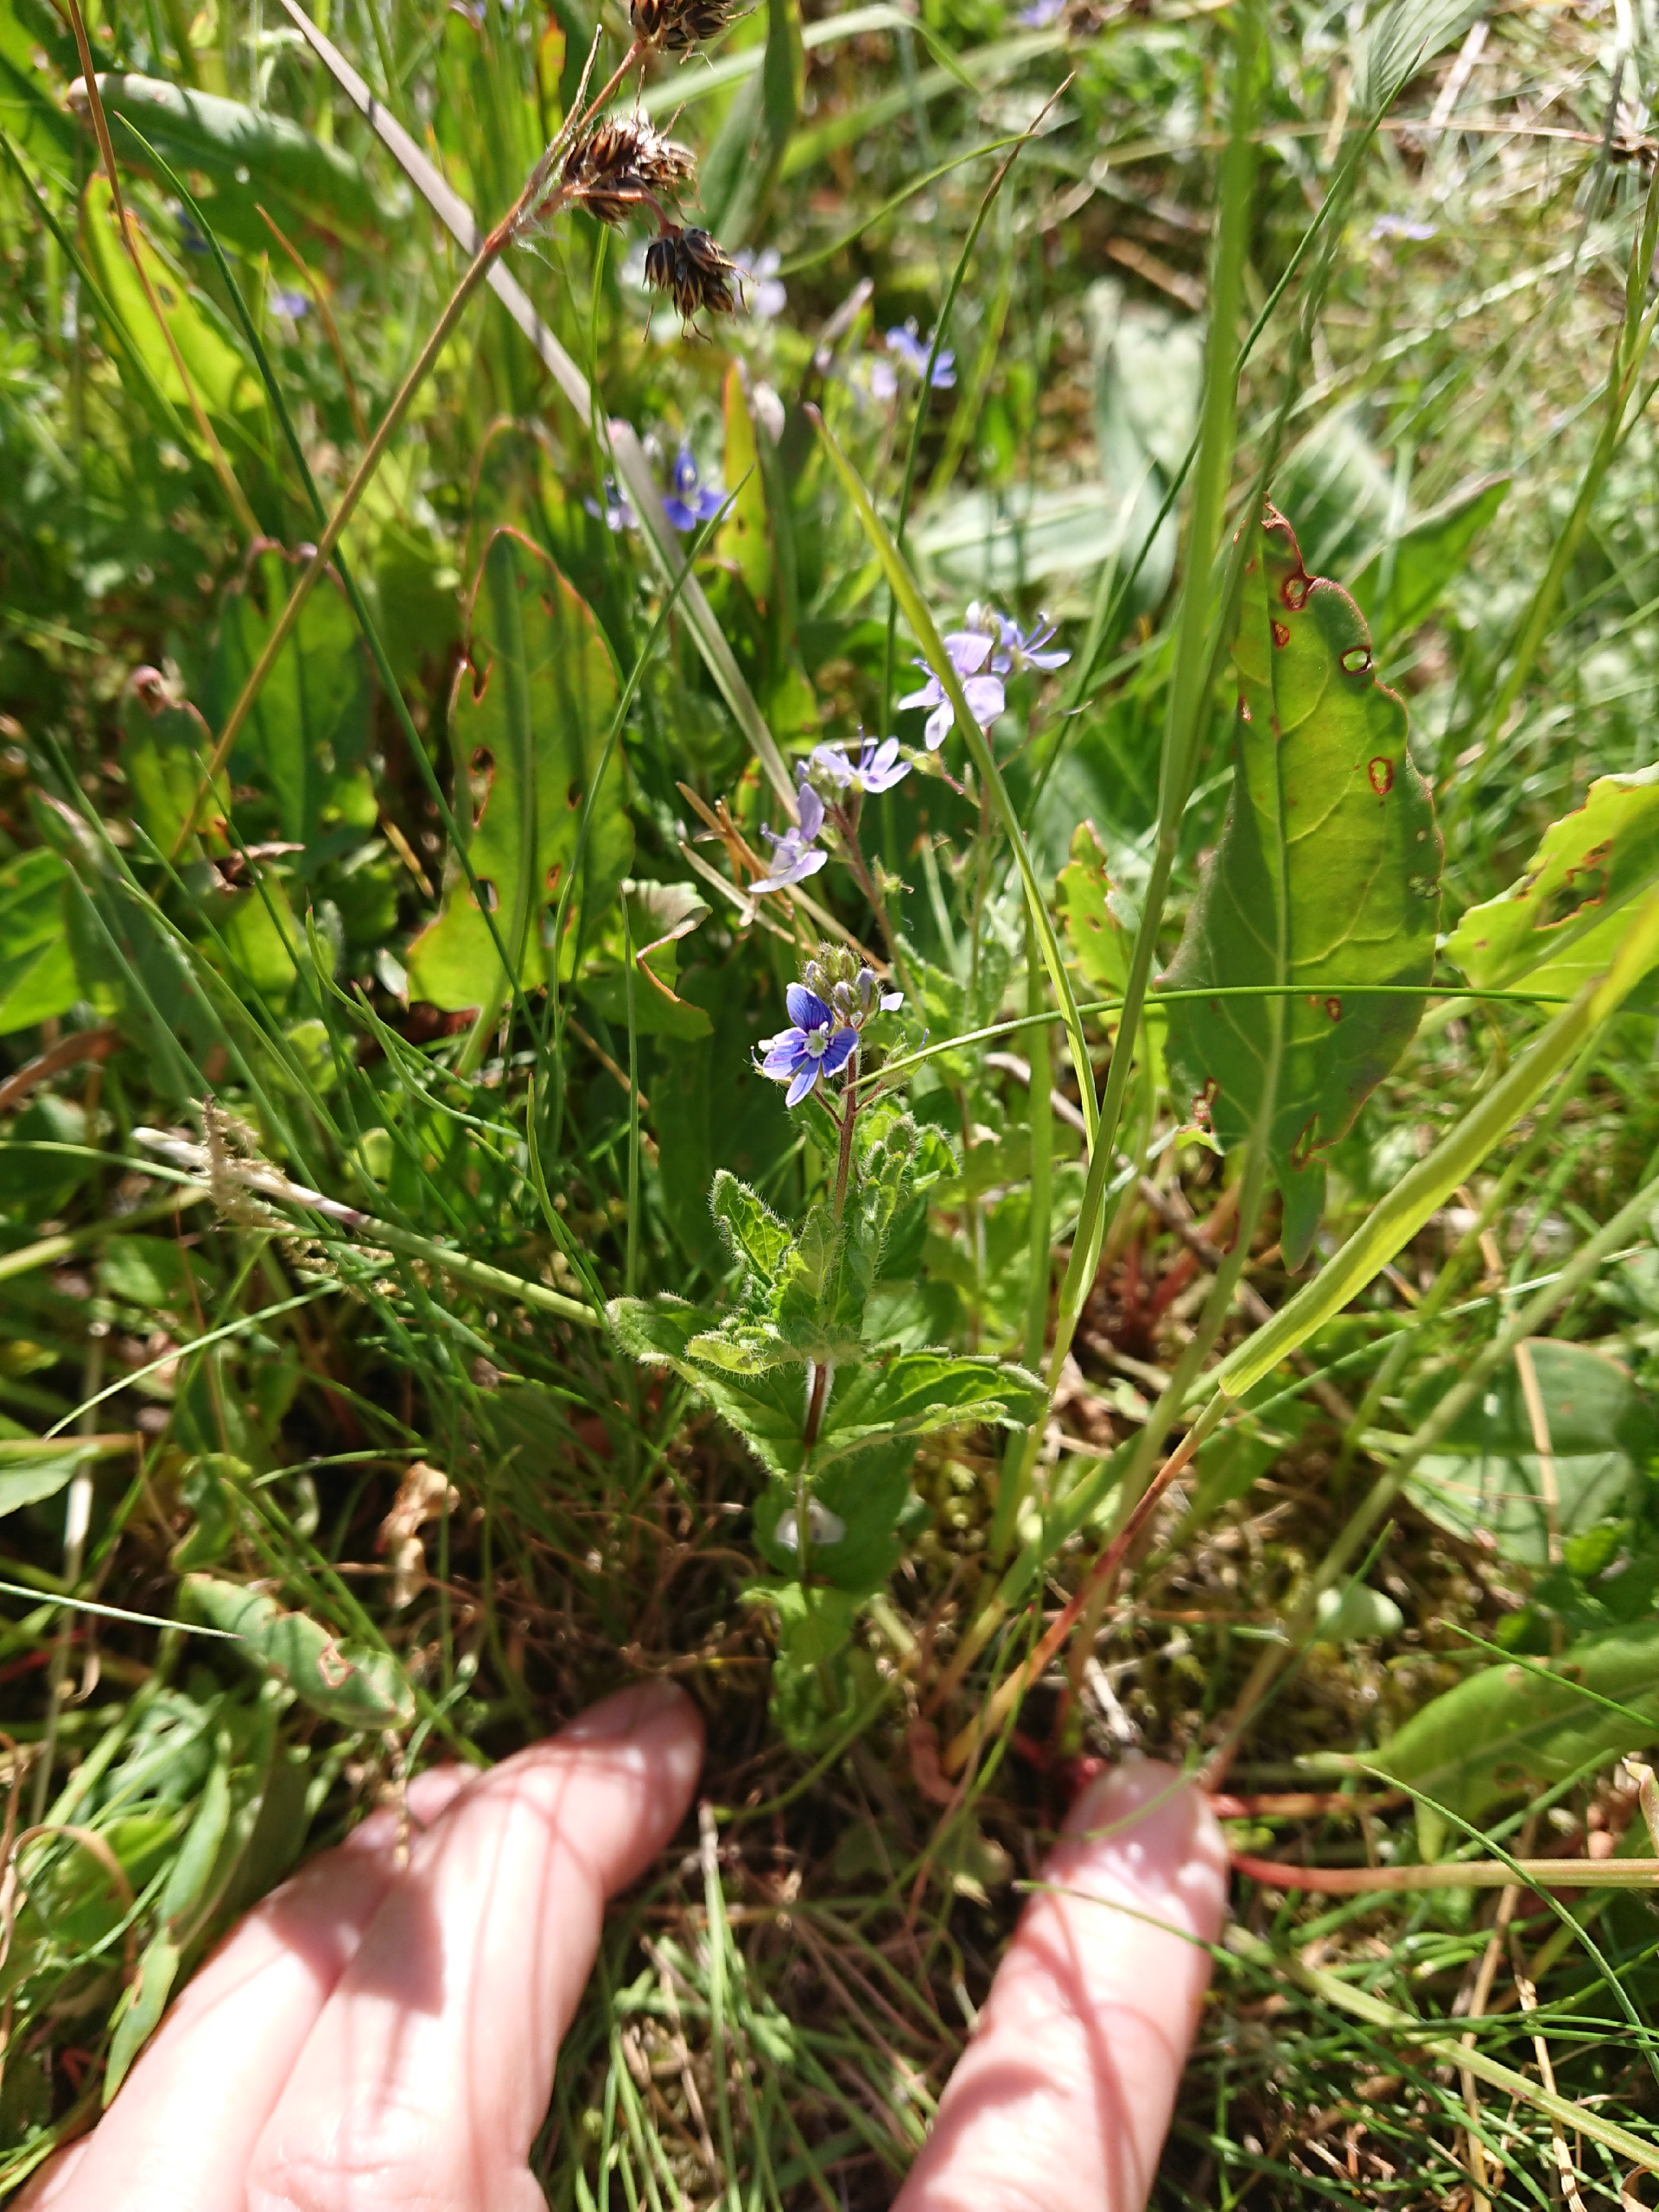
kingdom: Plantae
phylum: Tracheophyta
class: Magnoliopsida
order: Lamiales
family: Plantaginaceae
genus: Veronica
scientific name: Veronica chamaedrys
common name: Tveskægget ærenpris
